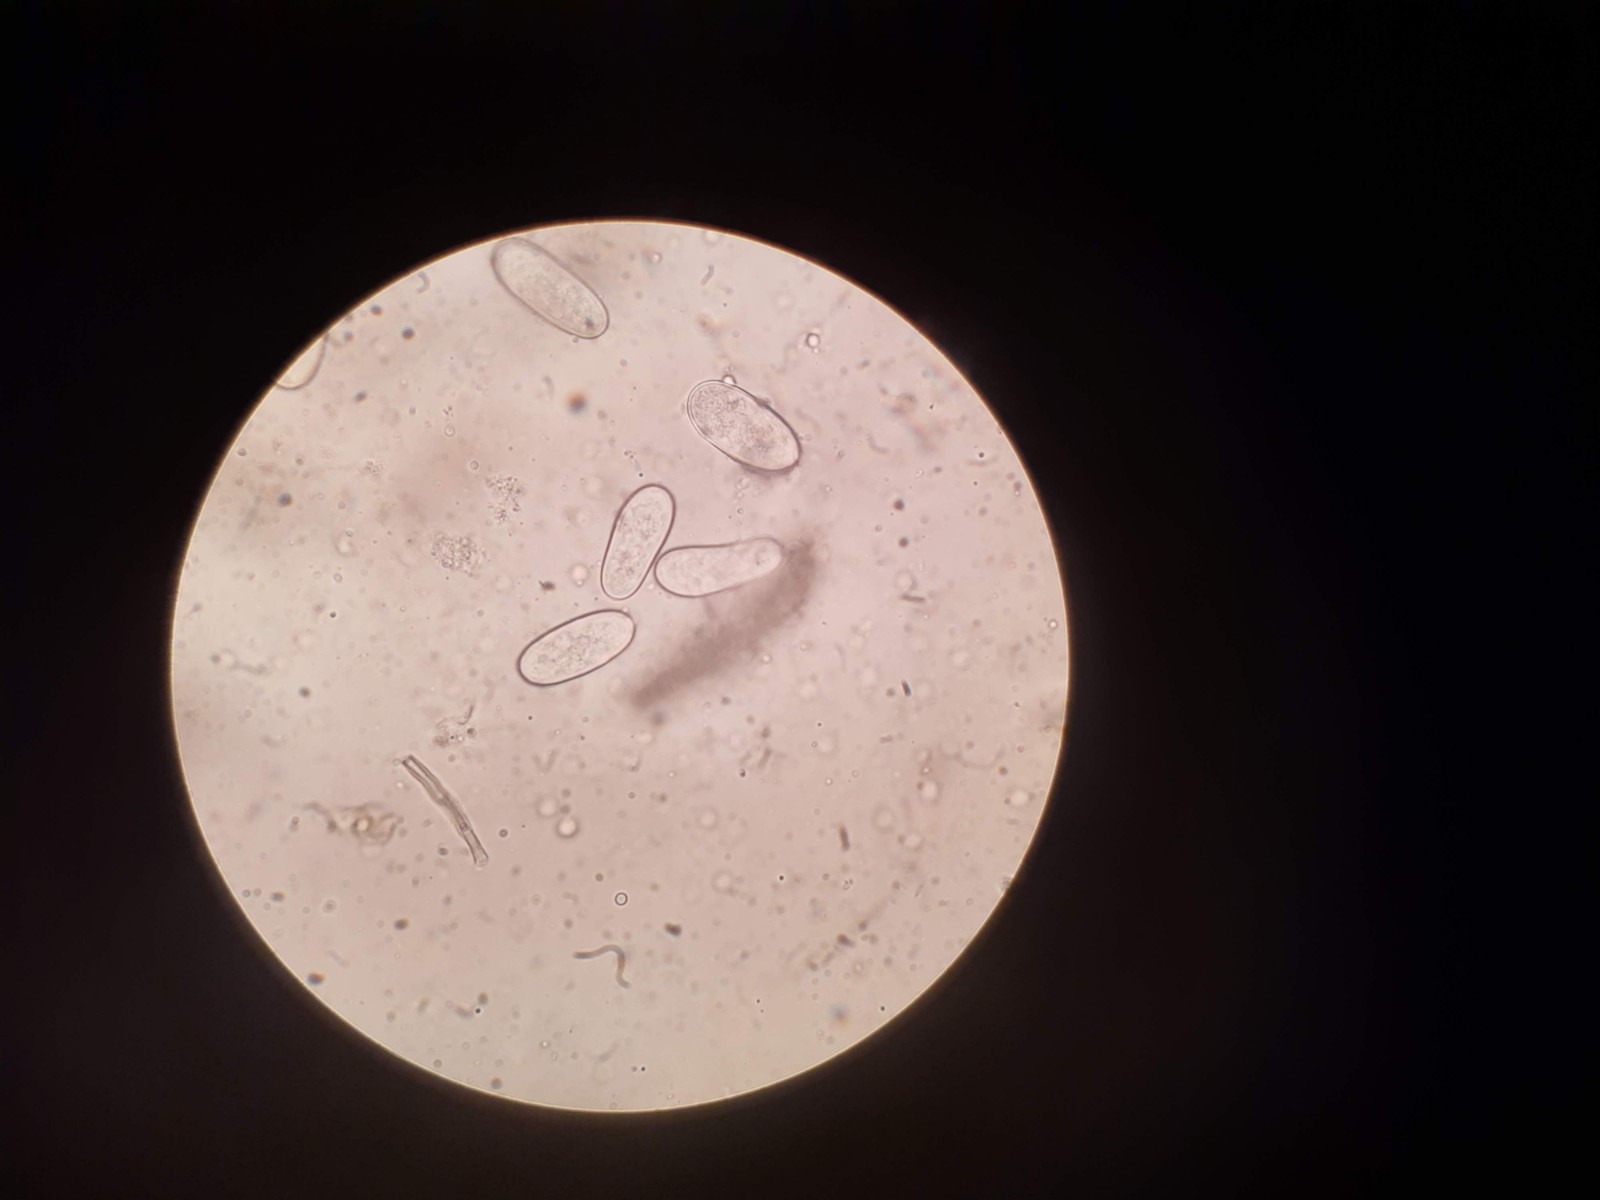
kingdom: Fungi
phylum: Ascomycota
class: Sordariomycetes
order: Diaporthales
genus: Botryodiplodia
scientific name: Botryodiplodia fraxini
